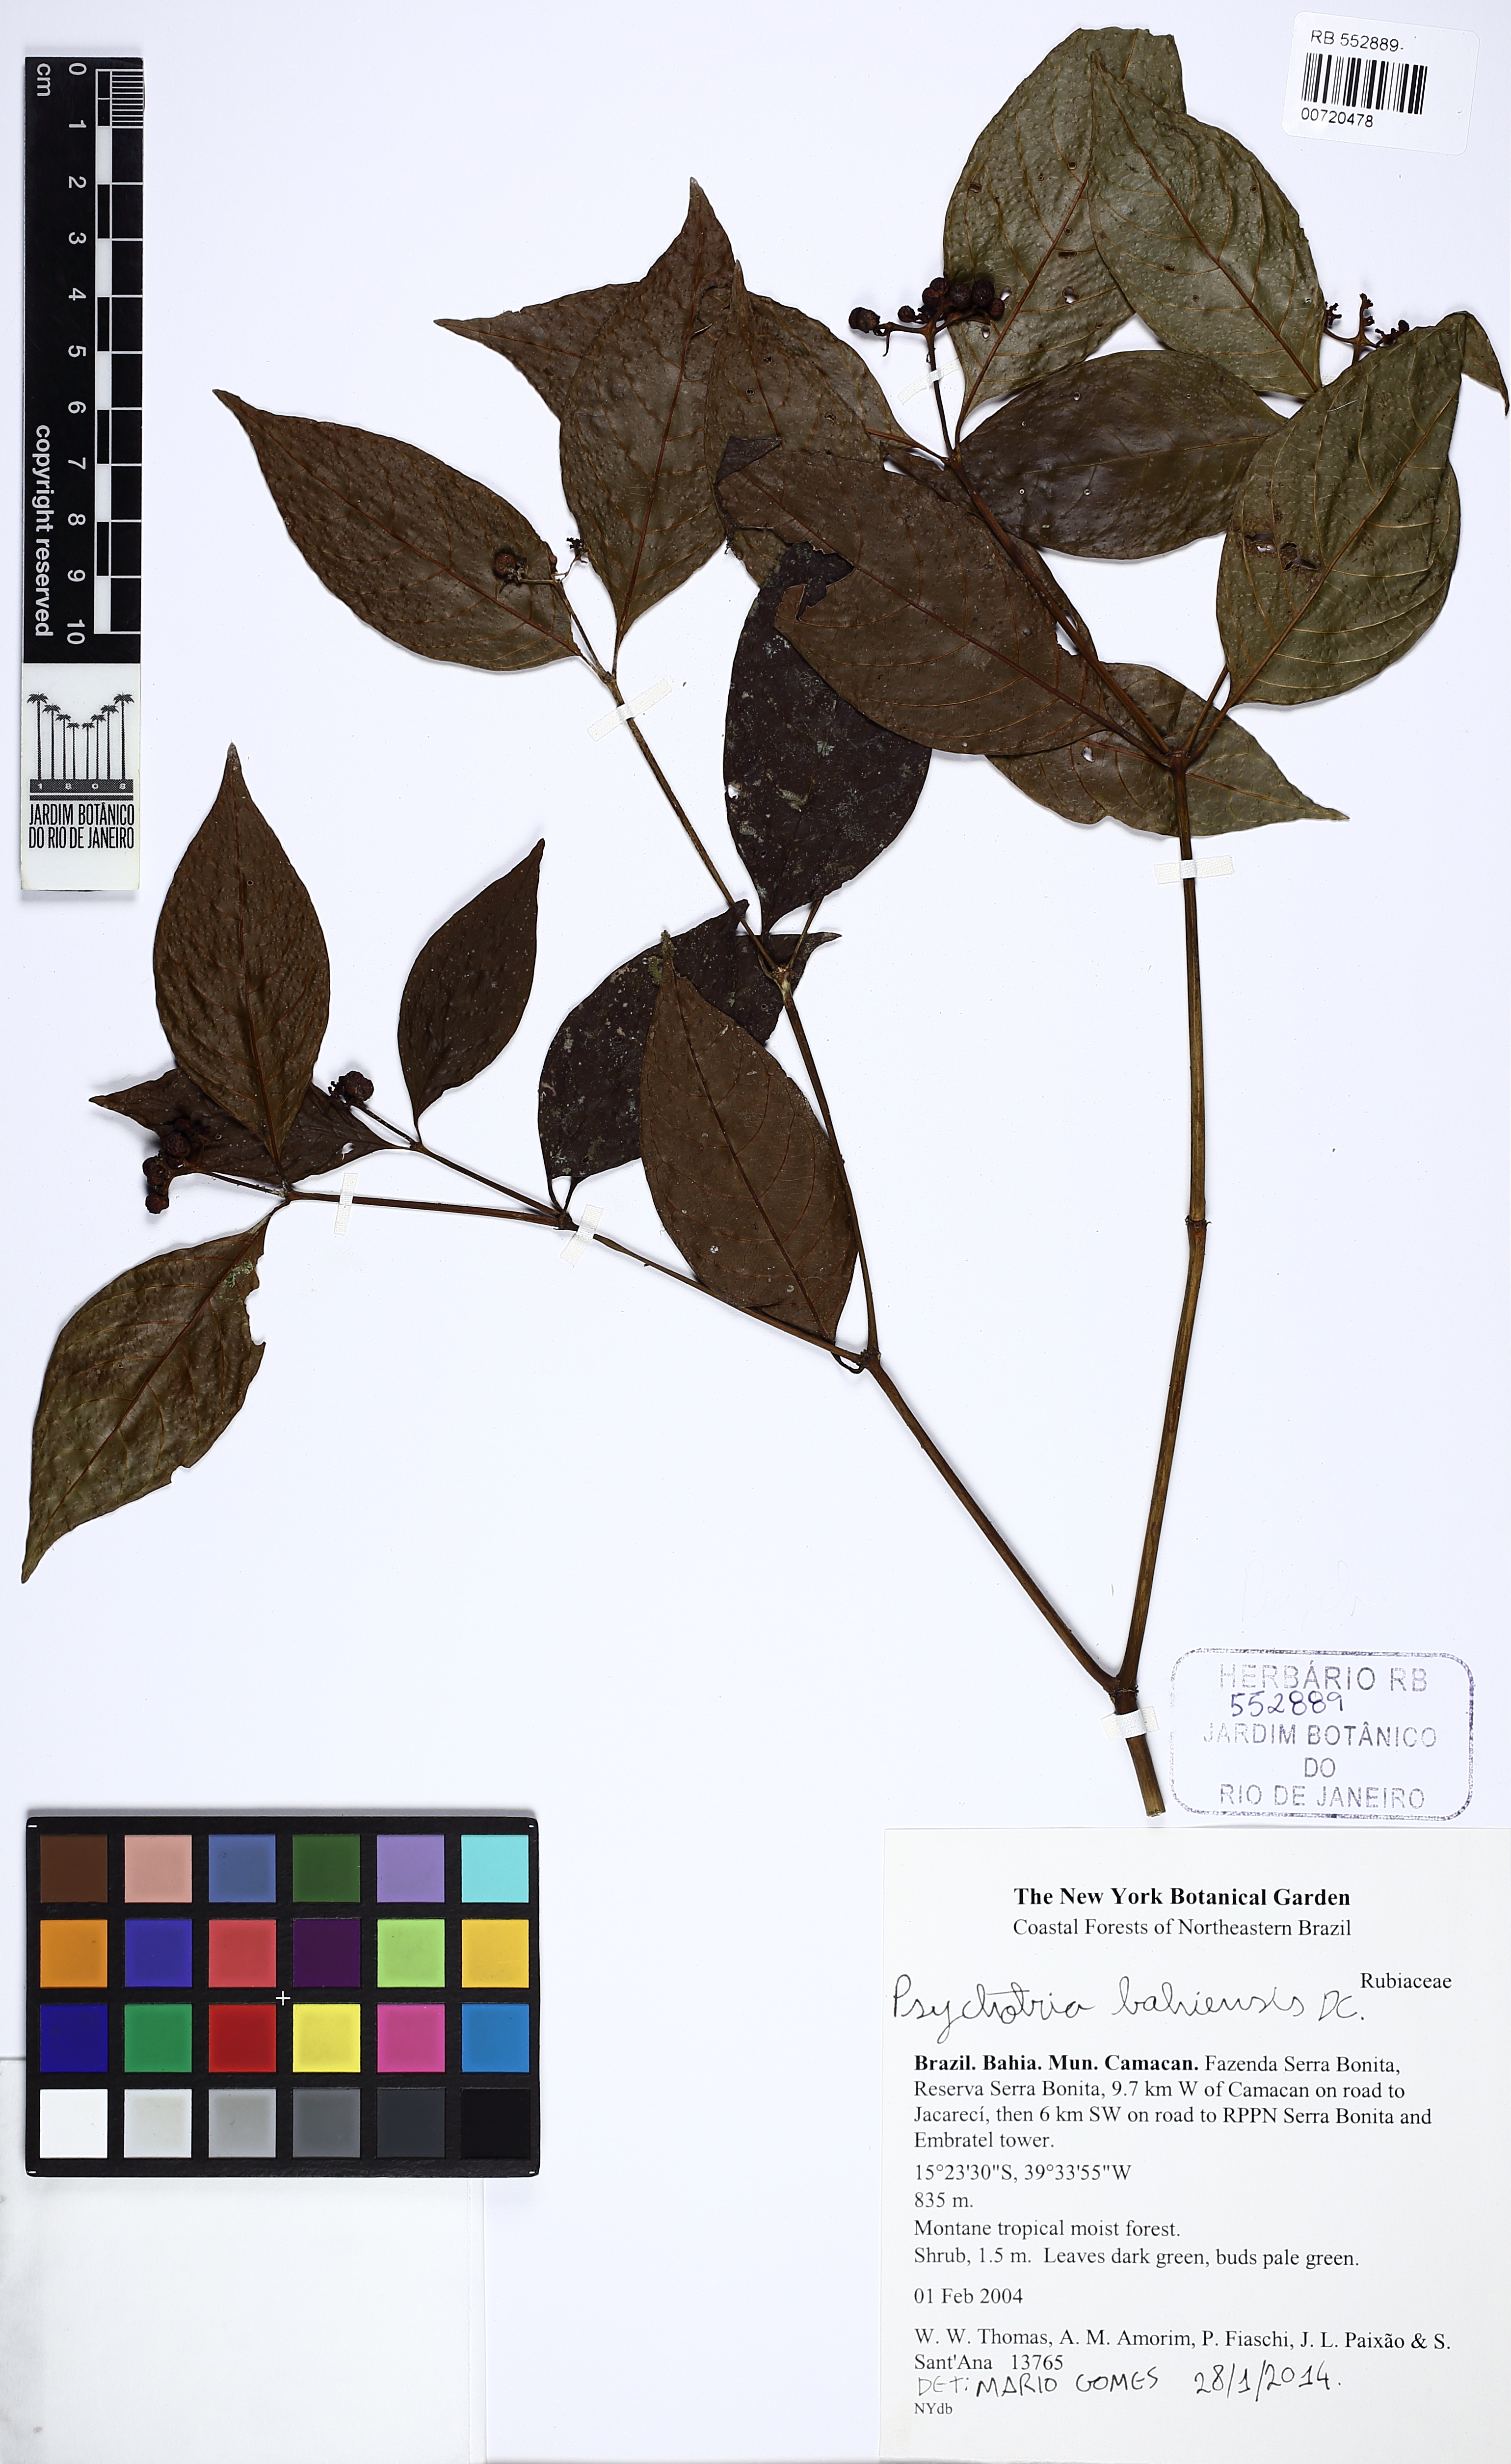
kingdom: Plantae
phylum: Tracheophyta
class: Magnoliopsida
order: Gentianales
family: Rubiaceae
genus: Psychotria
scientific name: Psychotria bahiensis
